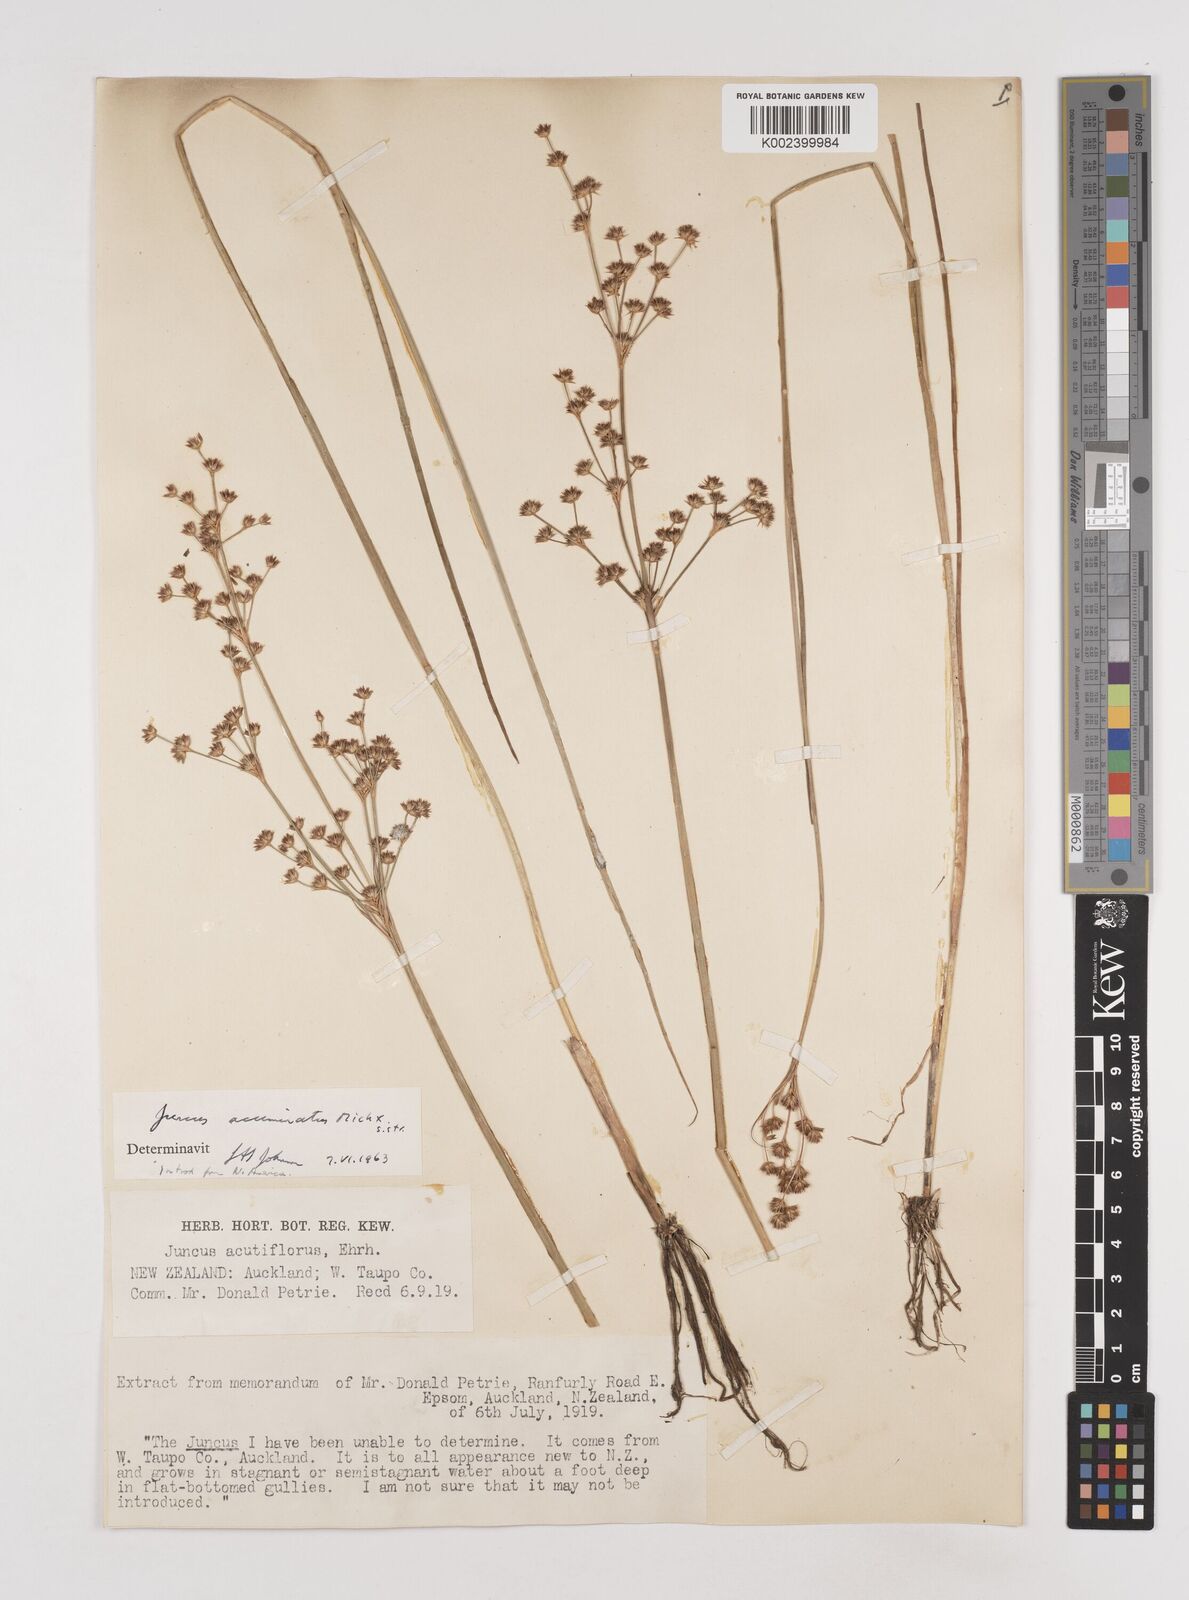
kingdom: Plantae
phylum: Tracheophyta
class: Liliopsida
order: Poales
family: Juncaceae
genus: Juncus
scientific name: Juncus acuminatus
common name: Knotty-leaved rush
